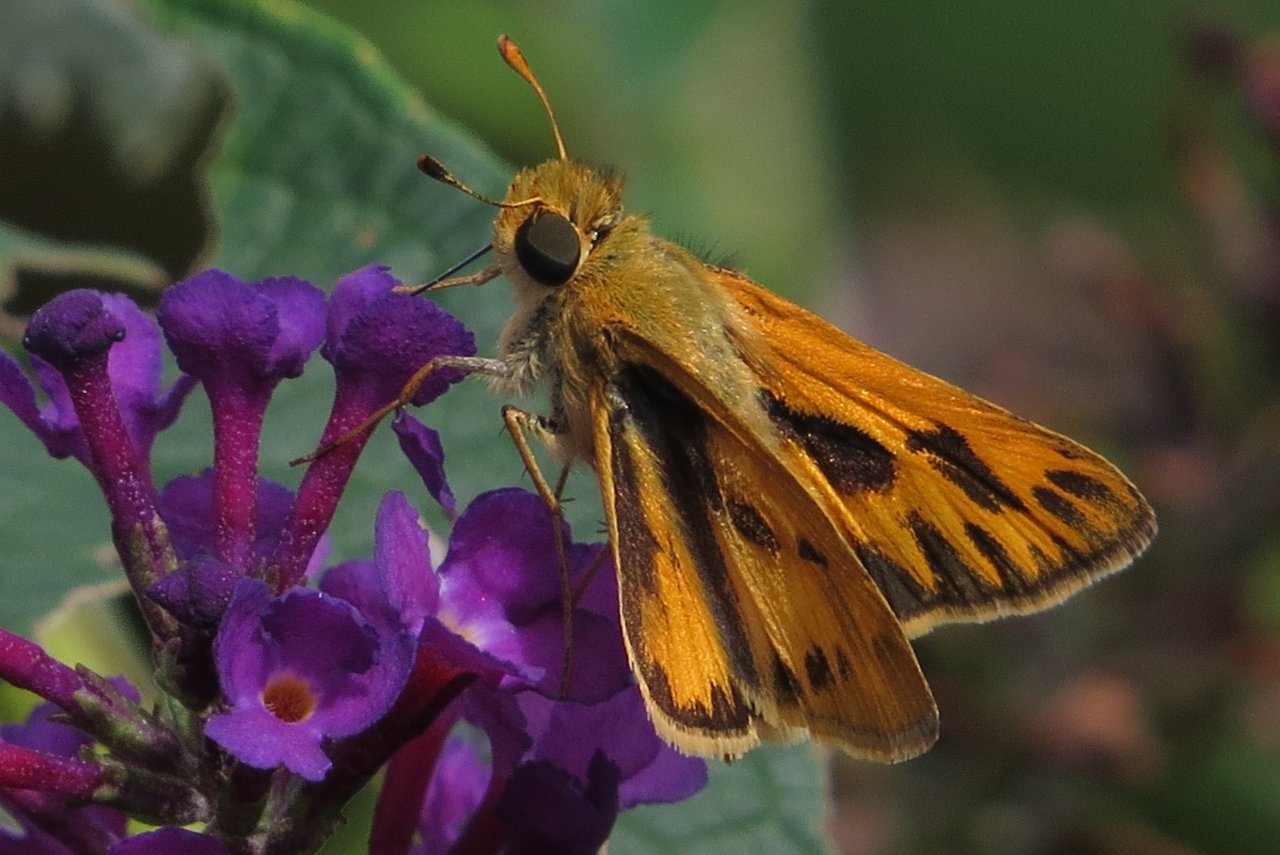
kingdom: Animalia
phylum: Arthropoda
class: Insecta
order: Lepidoptera
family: Hesperiidae
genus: Hylephila
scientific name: Hylephila phyleus
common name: Fiery Skipper
